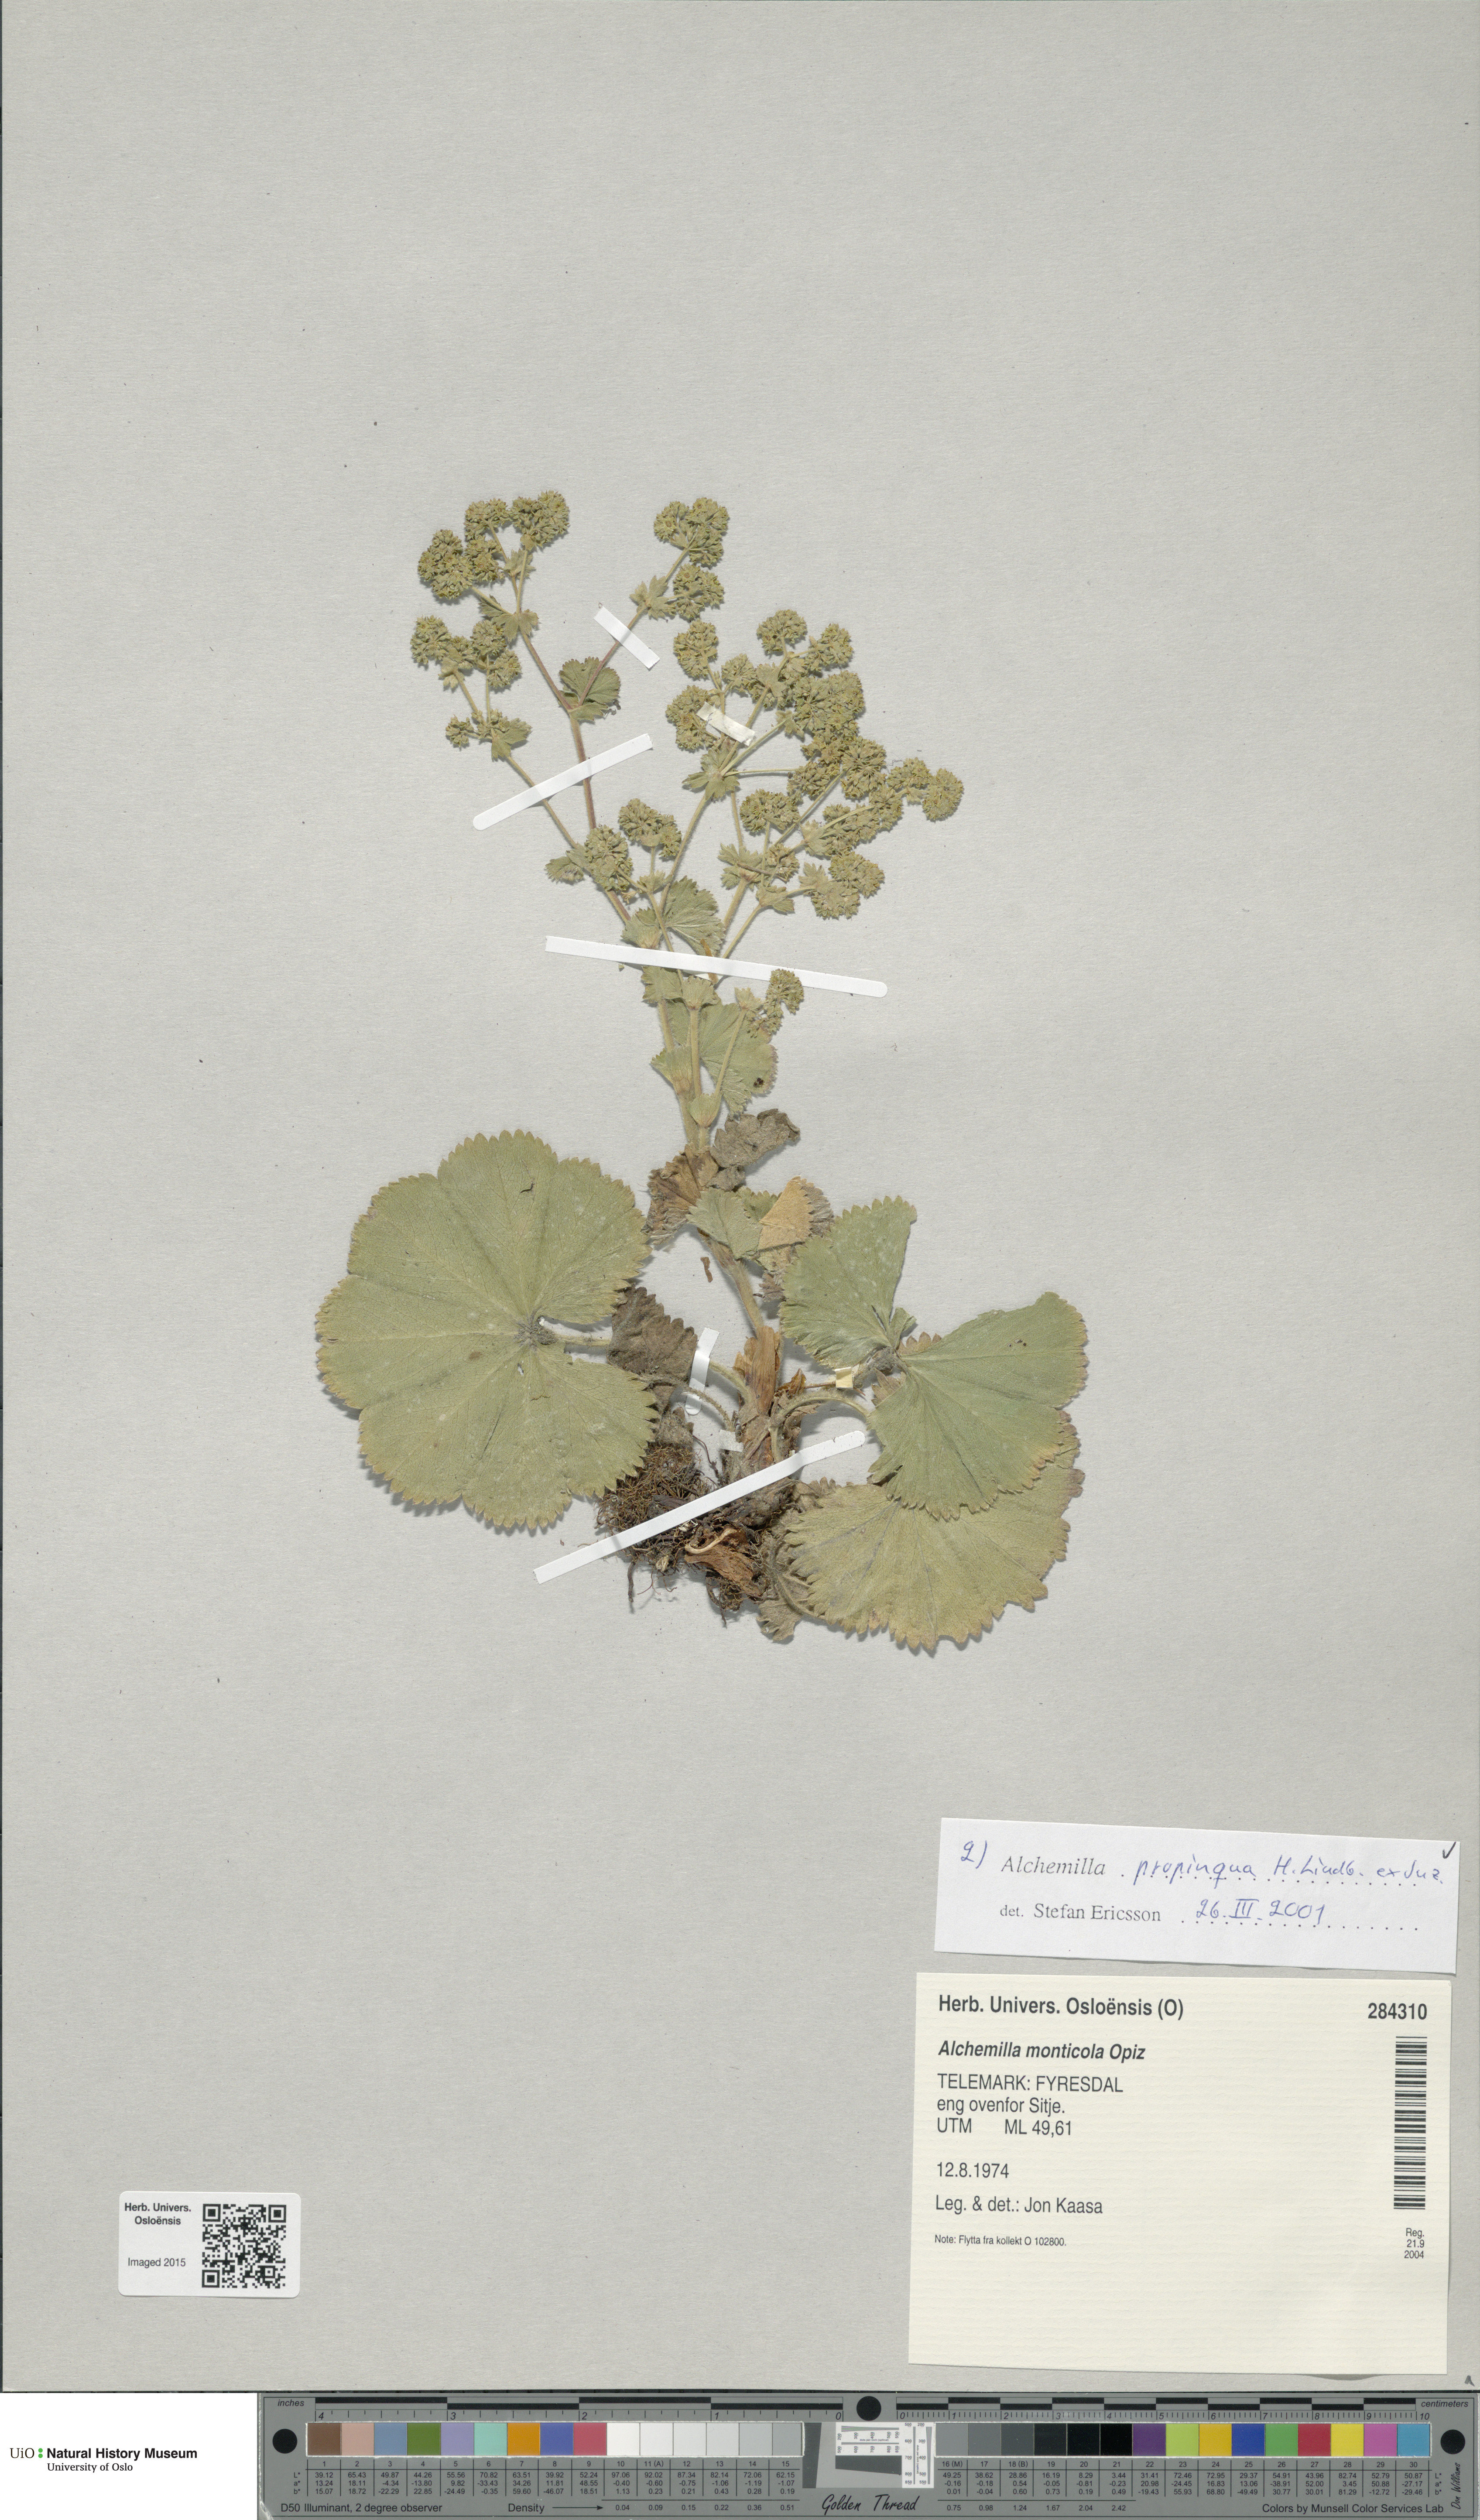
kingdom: Plantae
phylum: Tracheophyta
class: Magnoliopsida
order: Rosales
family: Rosaceae
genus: Alchemilla
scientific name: Alchemilla propinqua
